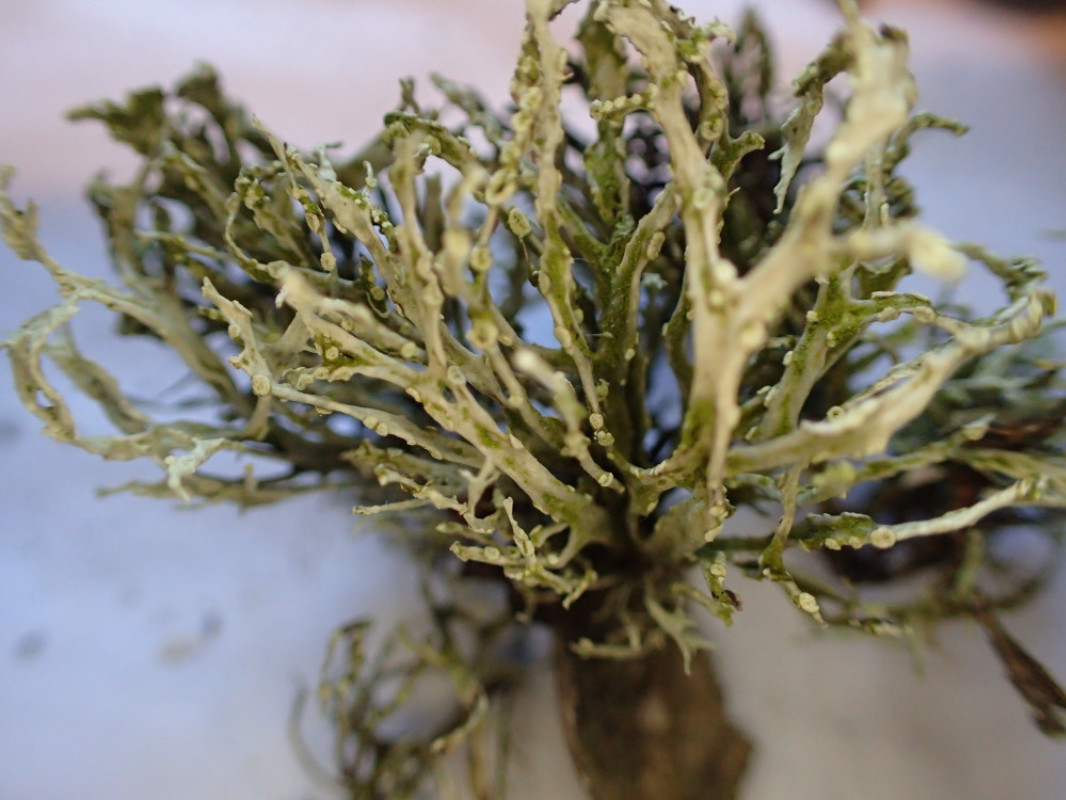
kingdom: Fungi
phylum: Ascomycota
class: Lecanoromycetes
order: Lecanorales
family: Ramalinaceae
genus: Ramalina
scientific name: Ramalina farinacea
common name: melet grenlav
